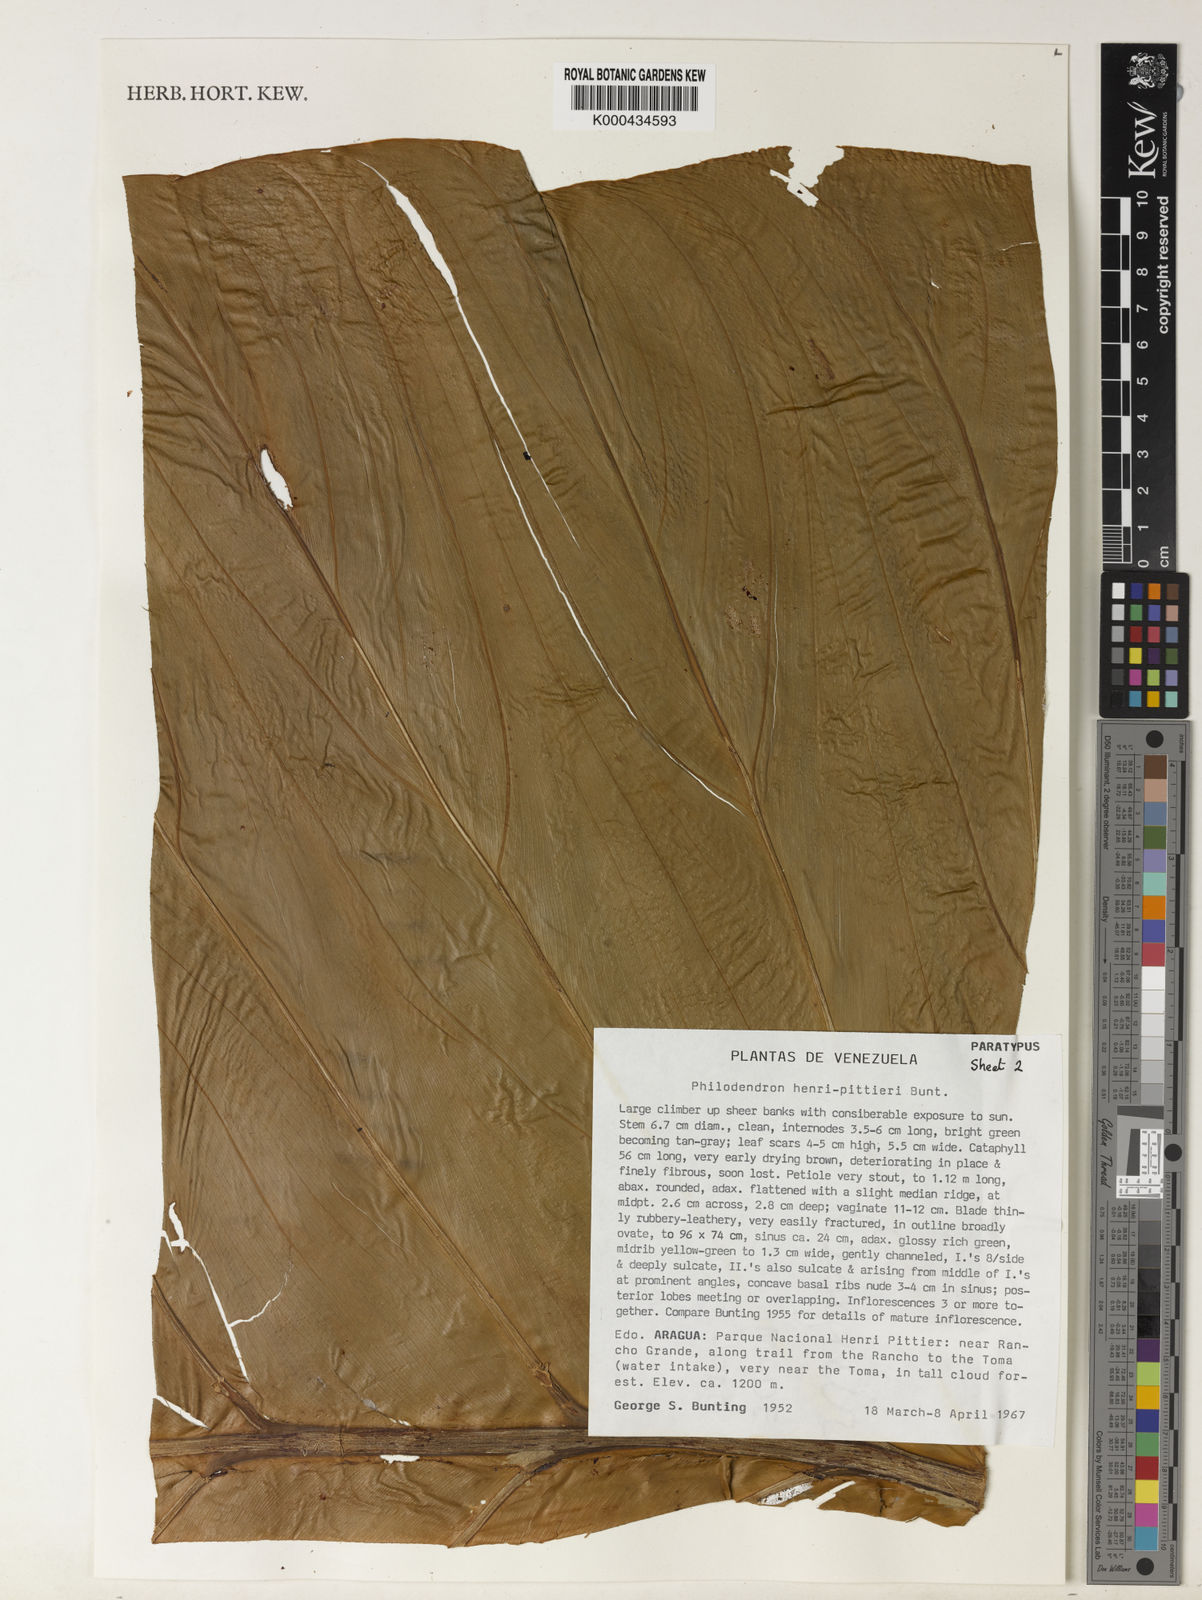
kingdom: Plantae
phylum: Tracheophyta
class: Liliopsida
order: Alismatales
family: Araceae
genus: Philodendron
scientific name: Philodendron henry-pittieri
